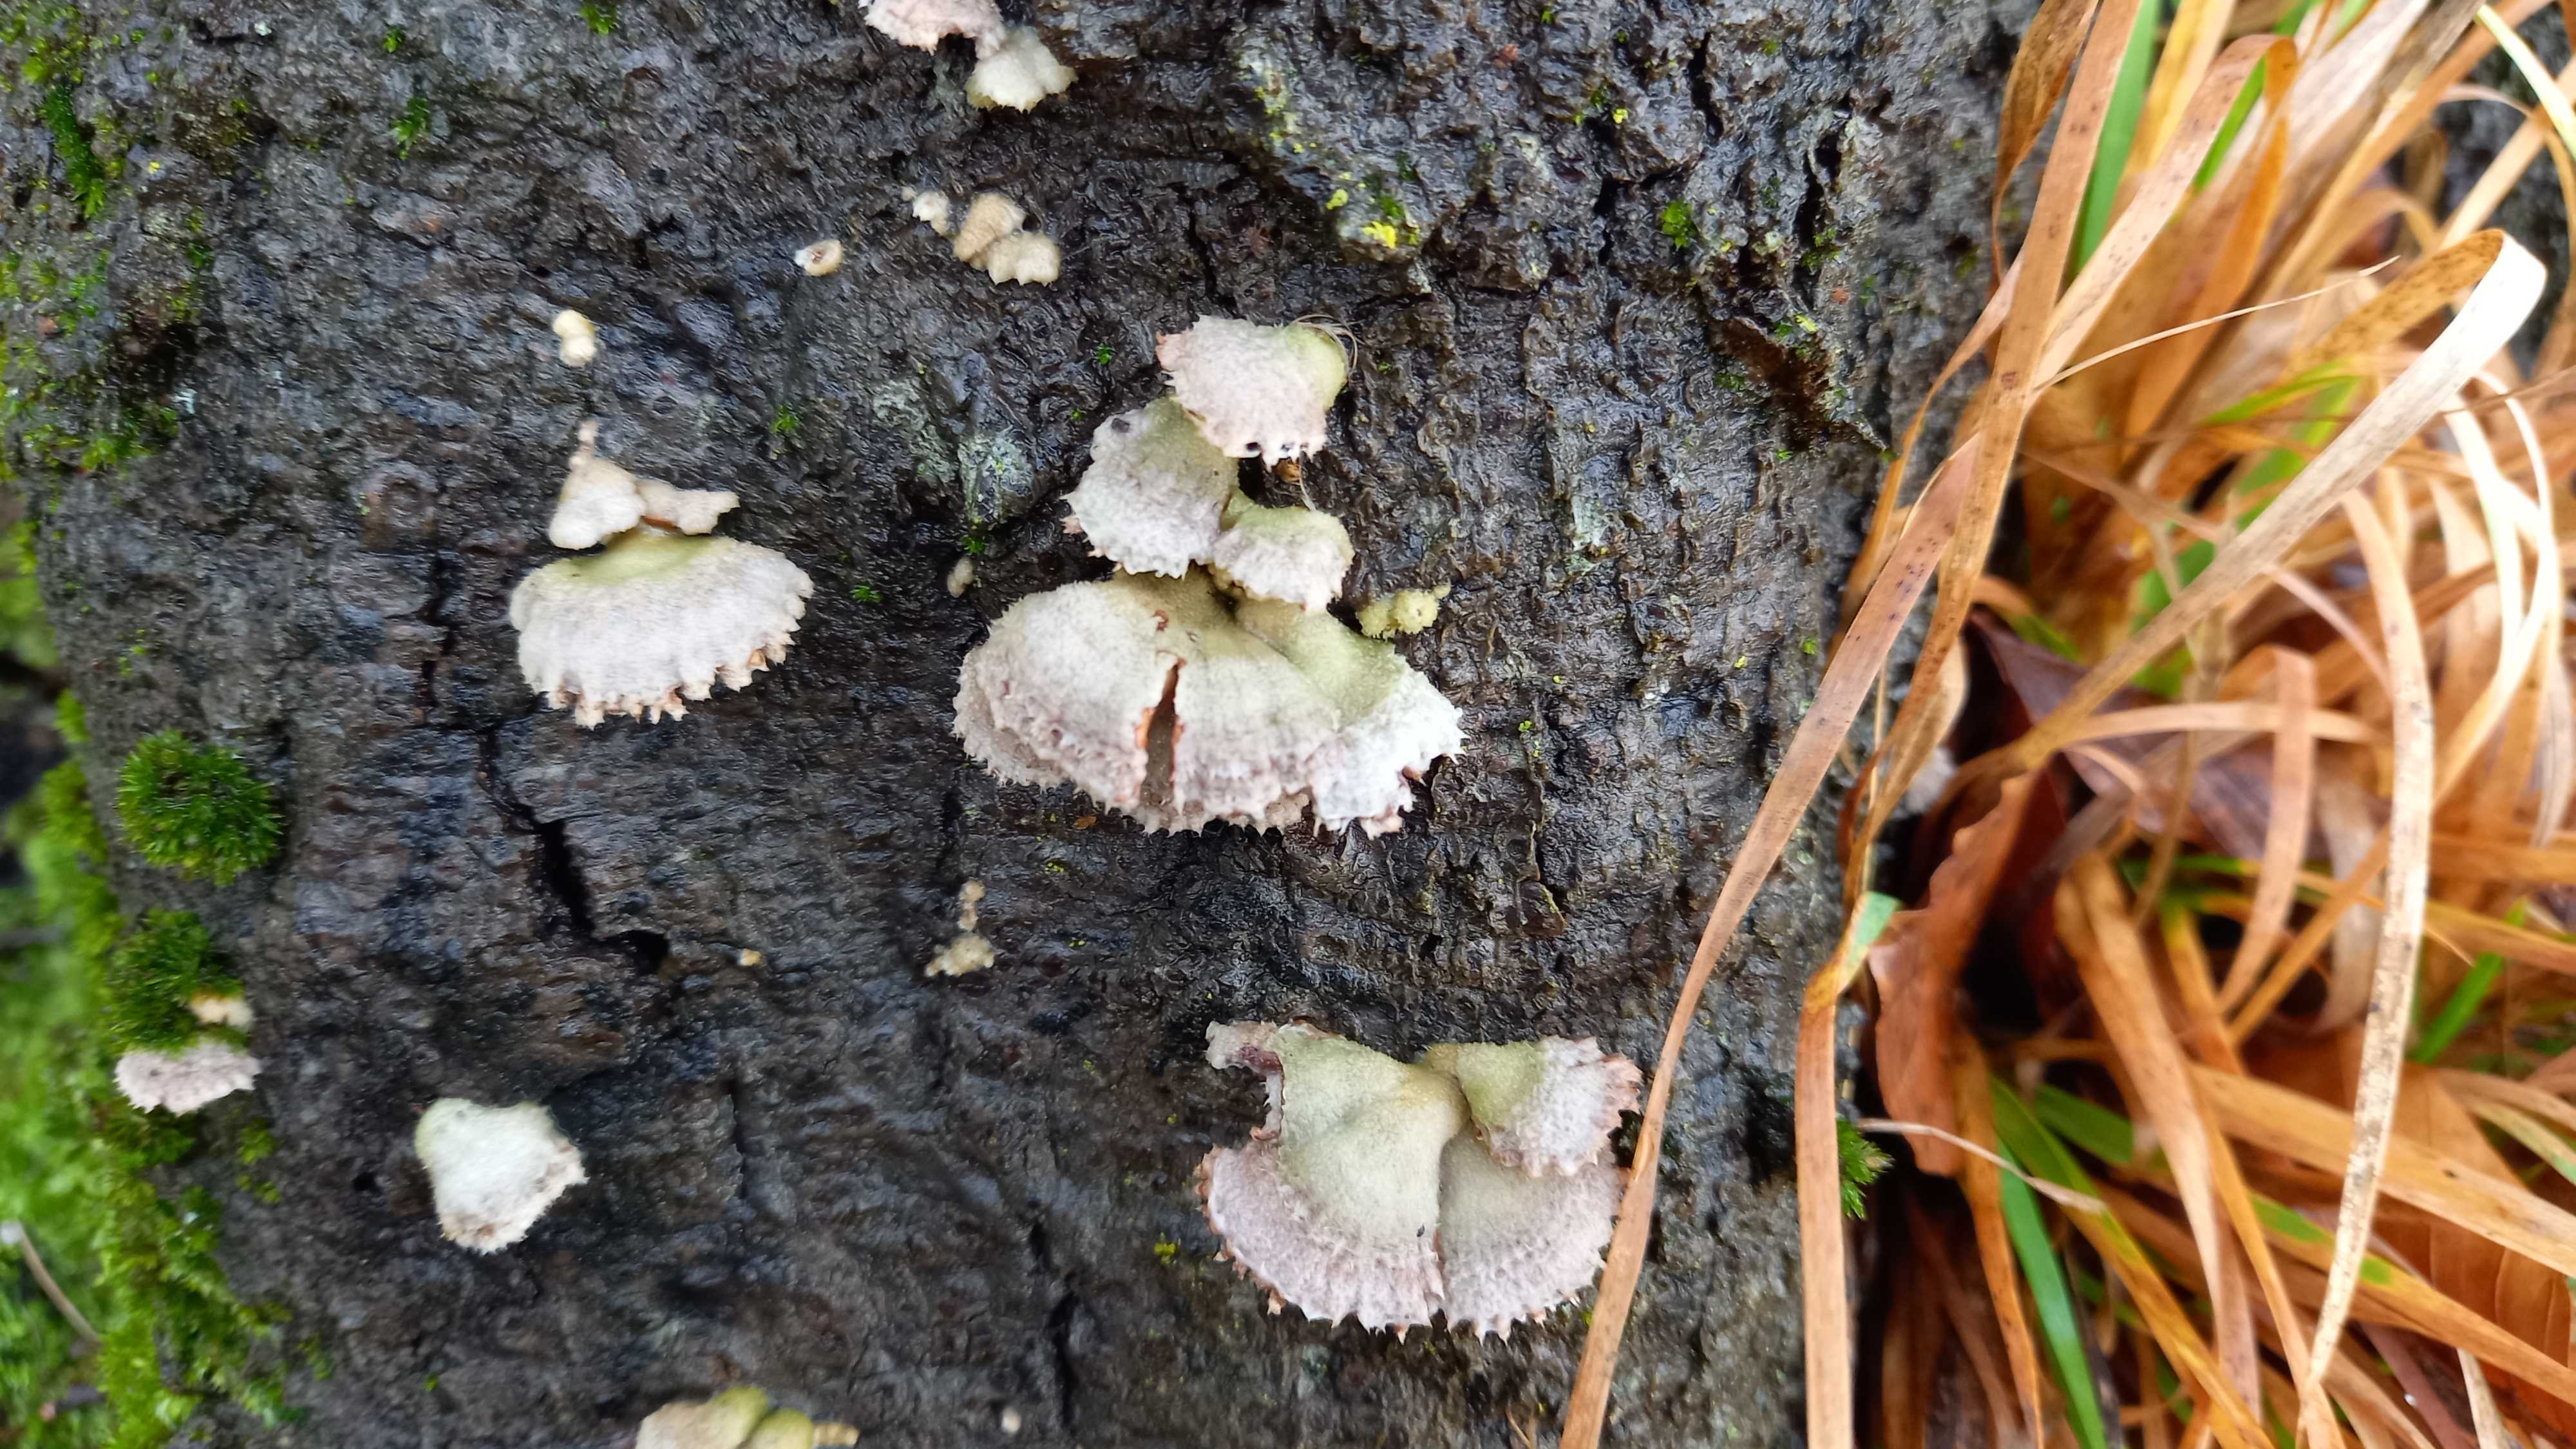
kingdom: Fungi
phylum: Basidiomycota
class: Agaricomycetes
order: Agaricales
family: Schizophyllaceae
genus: Schizophyllum
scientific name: Schizophyllum commune
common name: kløvblad
